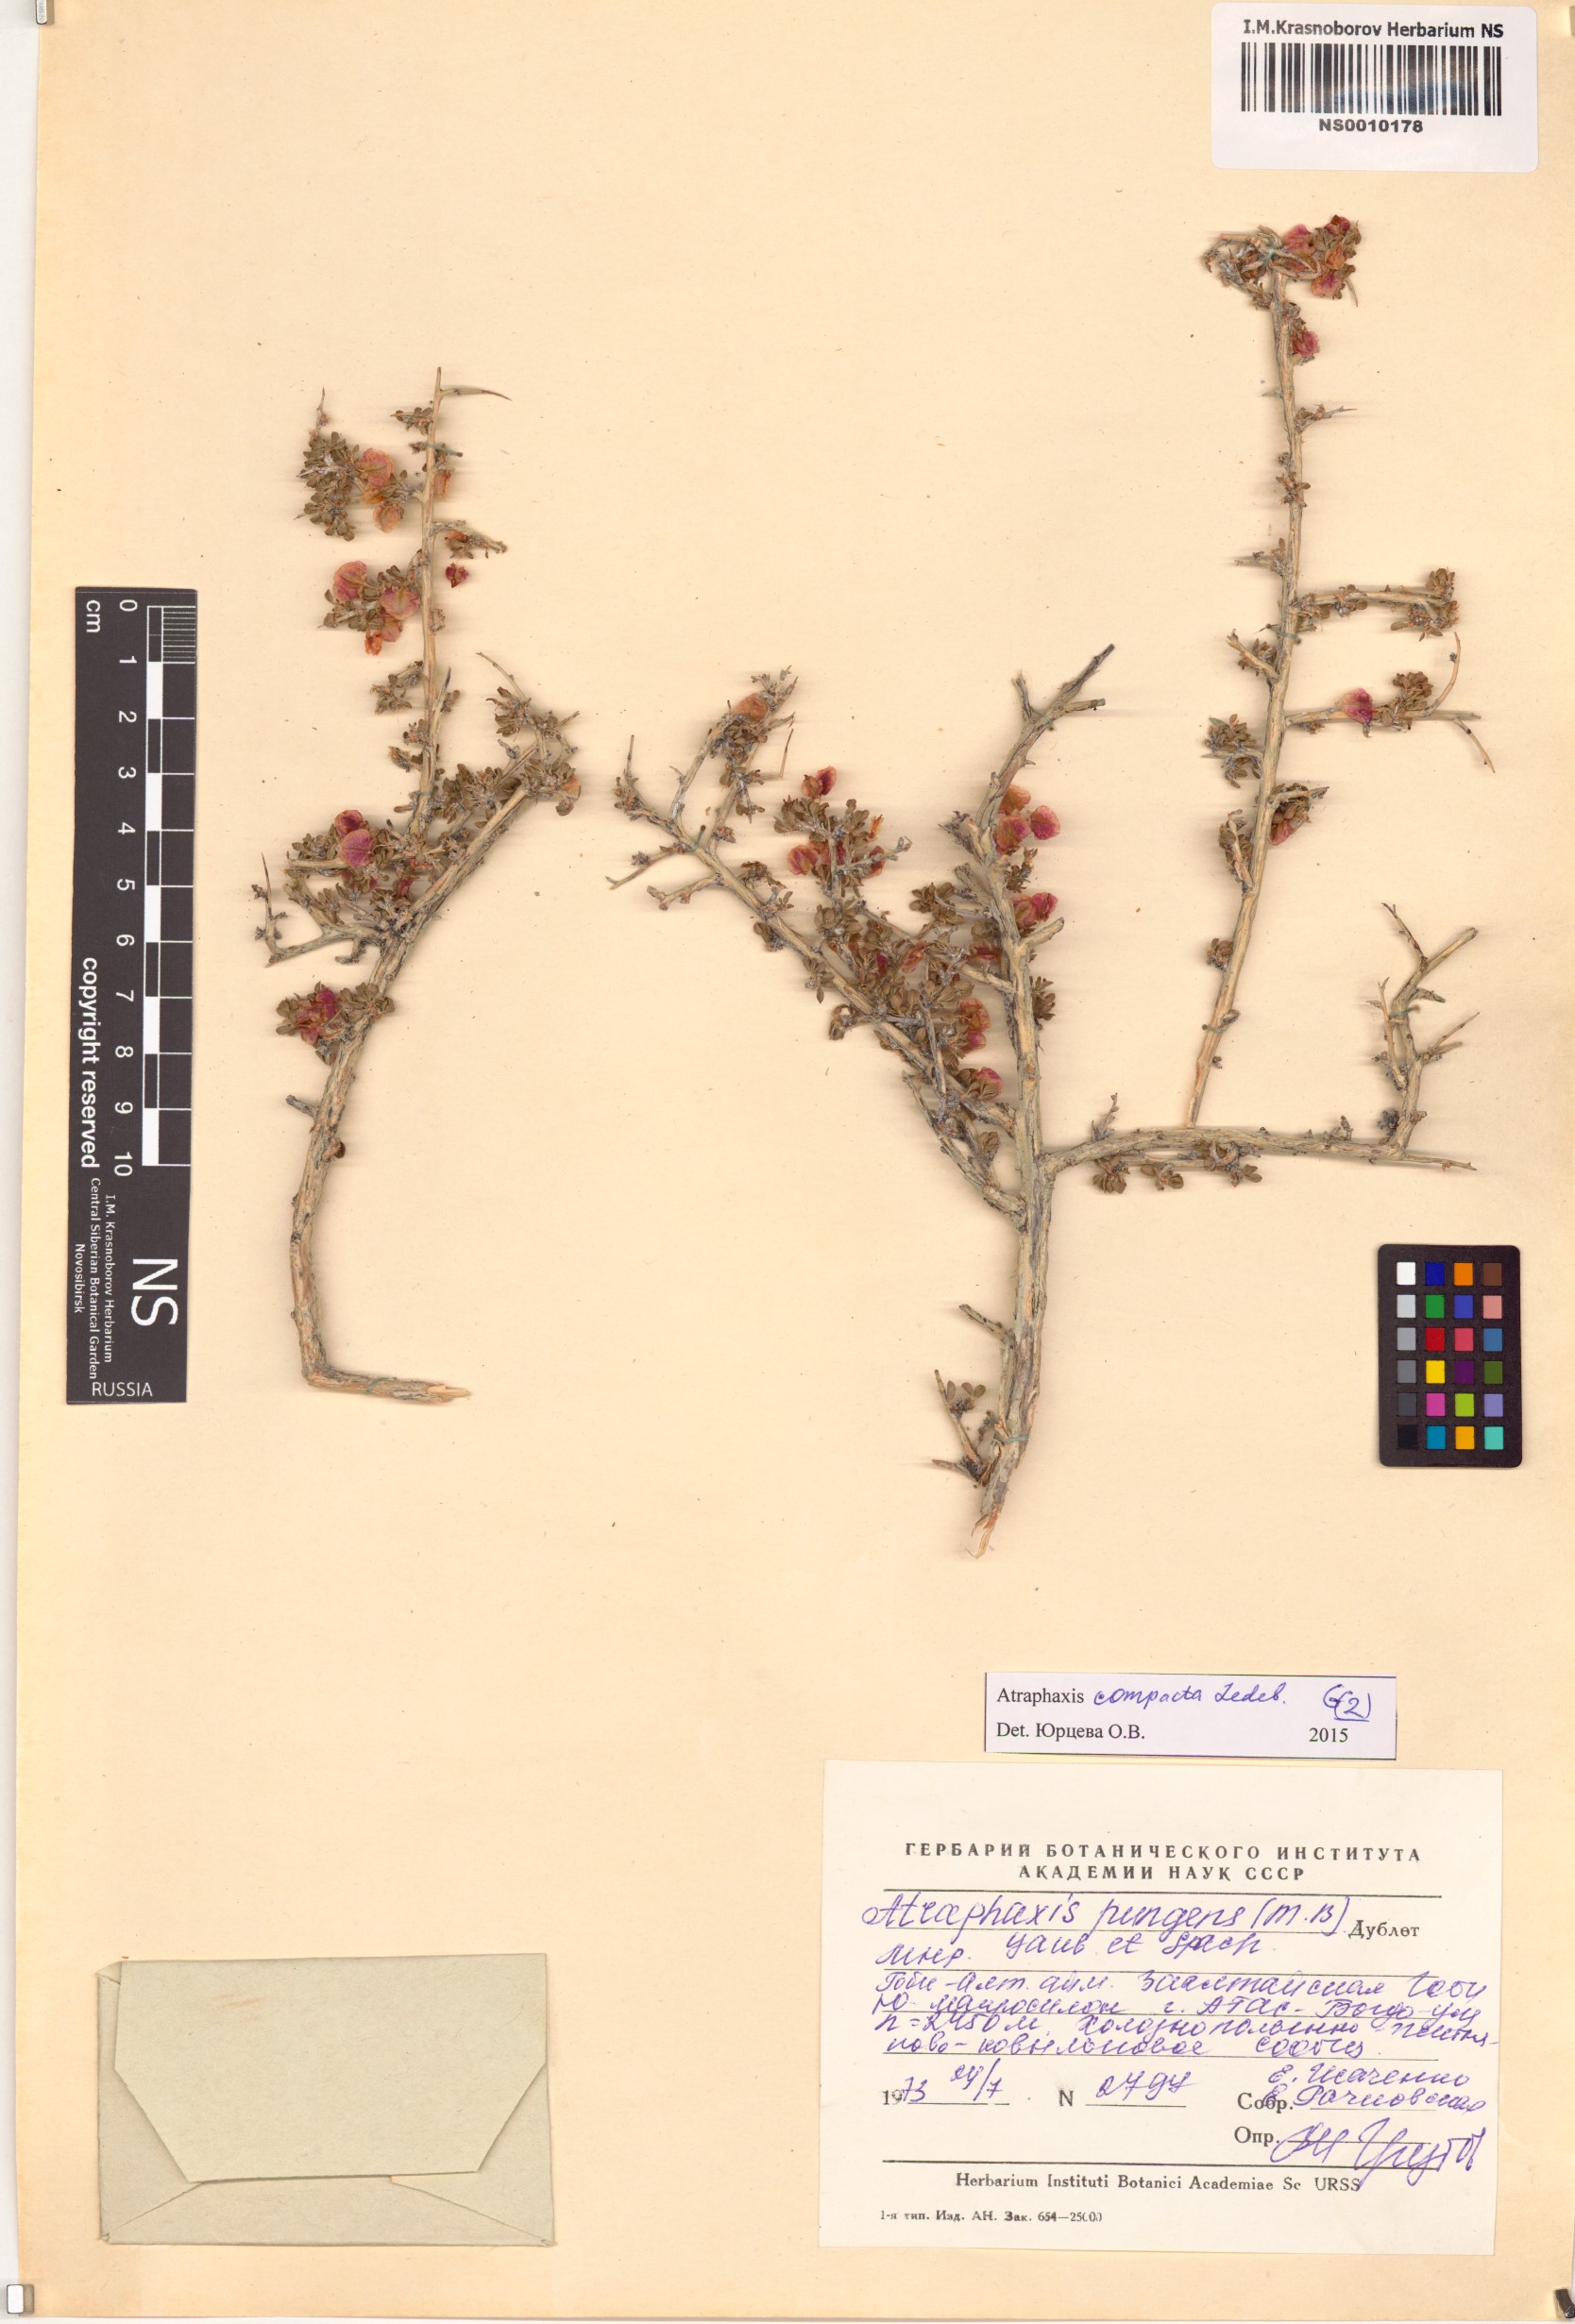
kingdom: Plantae
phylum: Tracheophyta
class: Magnoliopsida
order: Caryophyllales
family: Polygonaceae
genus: Atraphaxis
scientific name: Atraphaxis compacta
